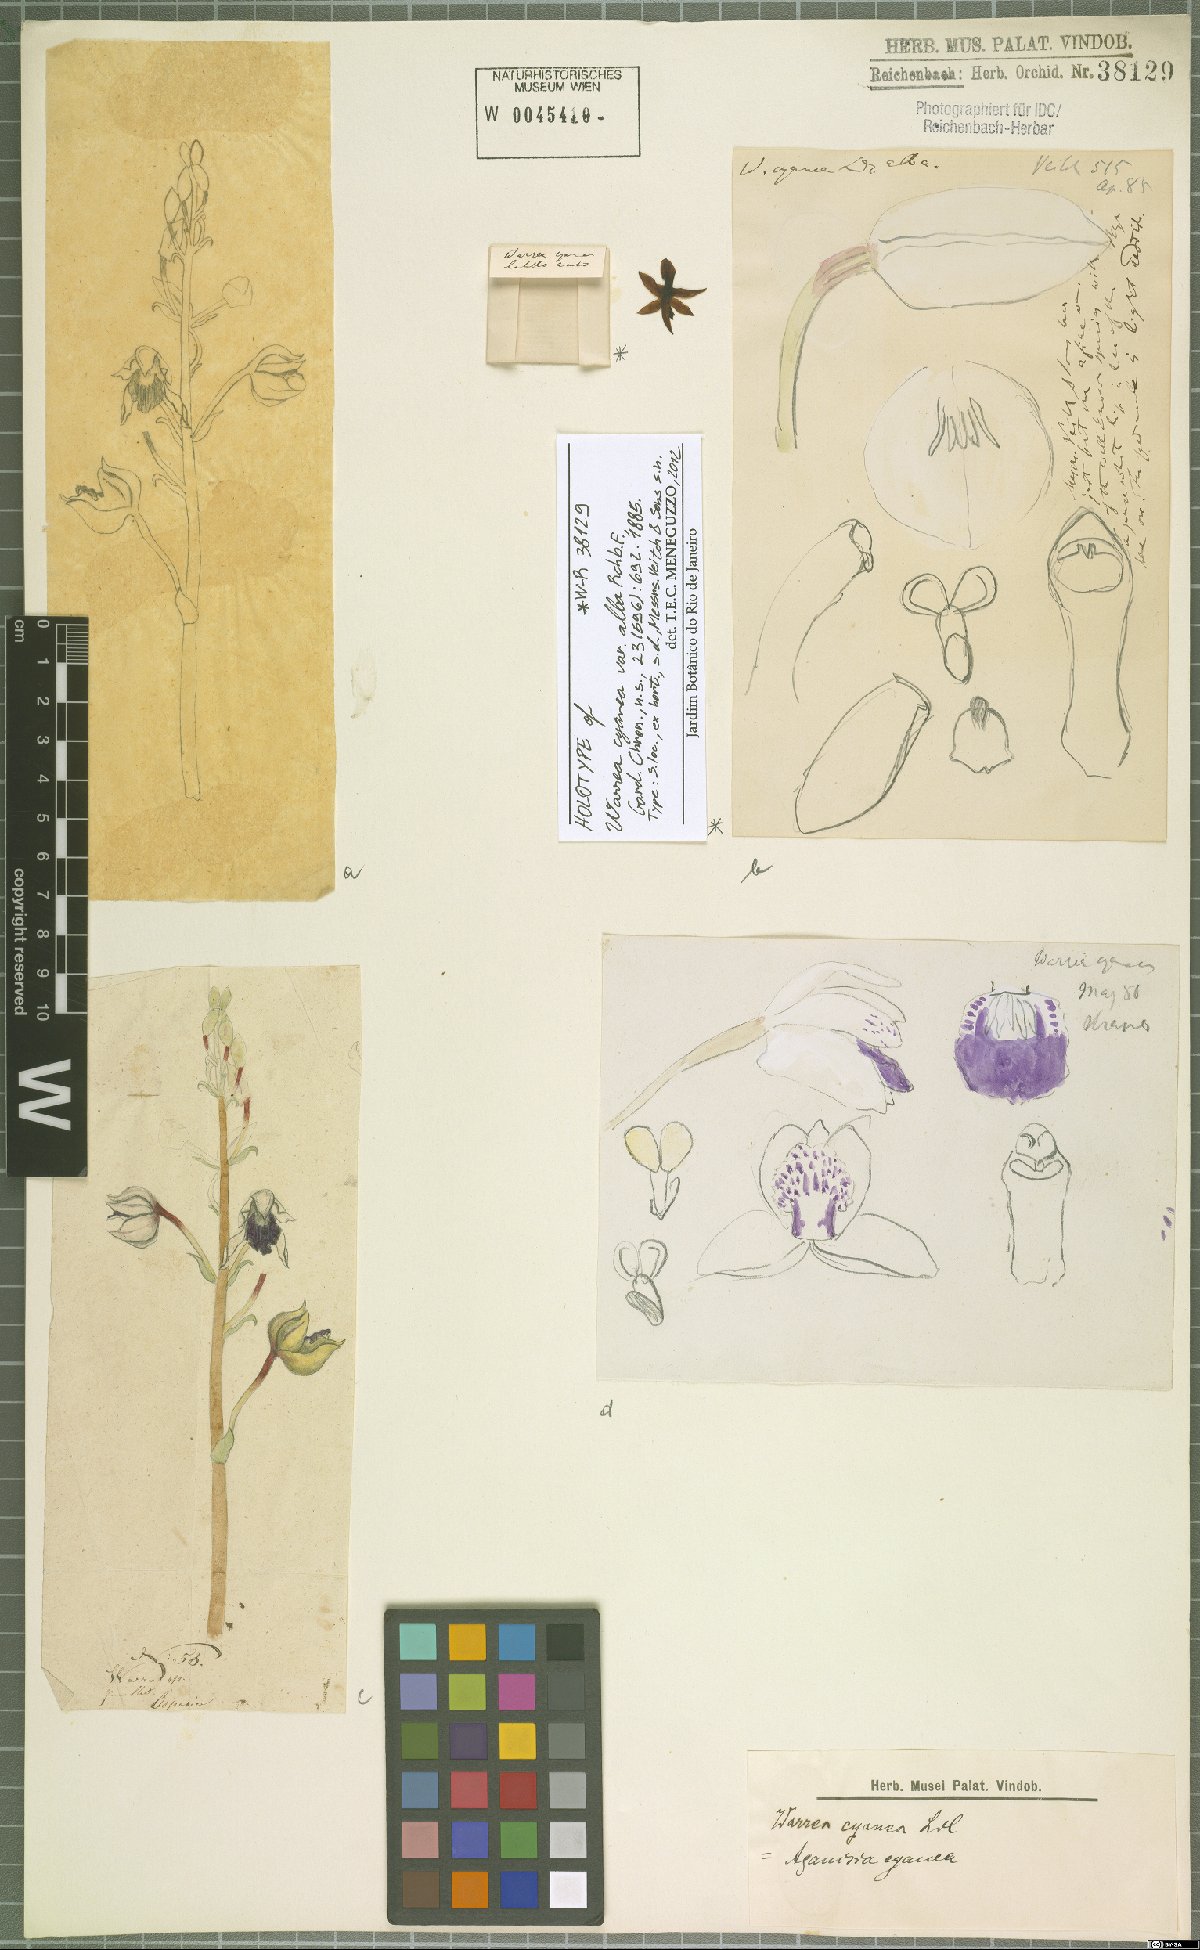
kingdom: Plantae
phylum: Tracheophyta
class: Liliopsida
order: Asparagales
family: Orchidaceae
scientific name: Orchidaceae
